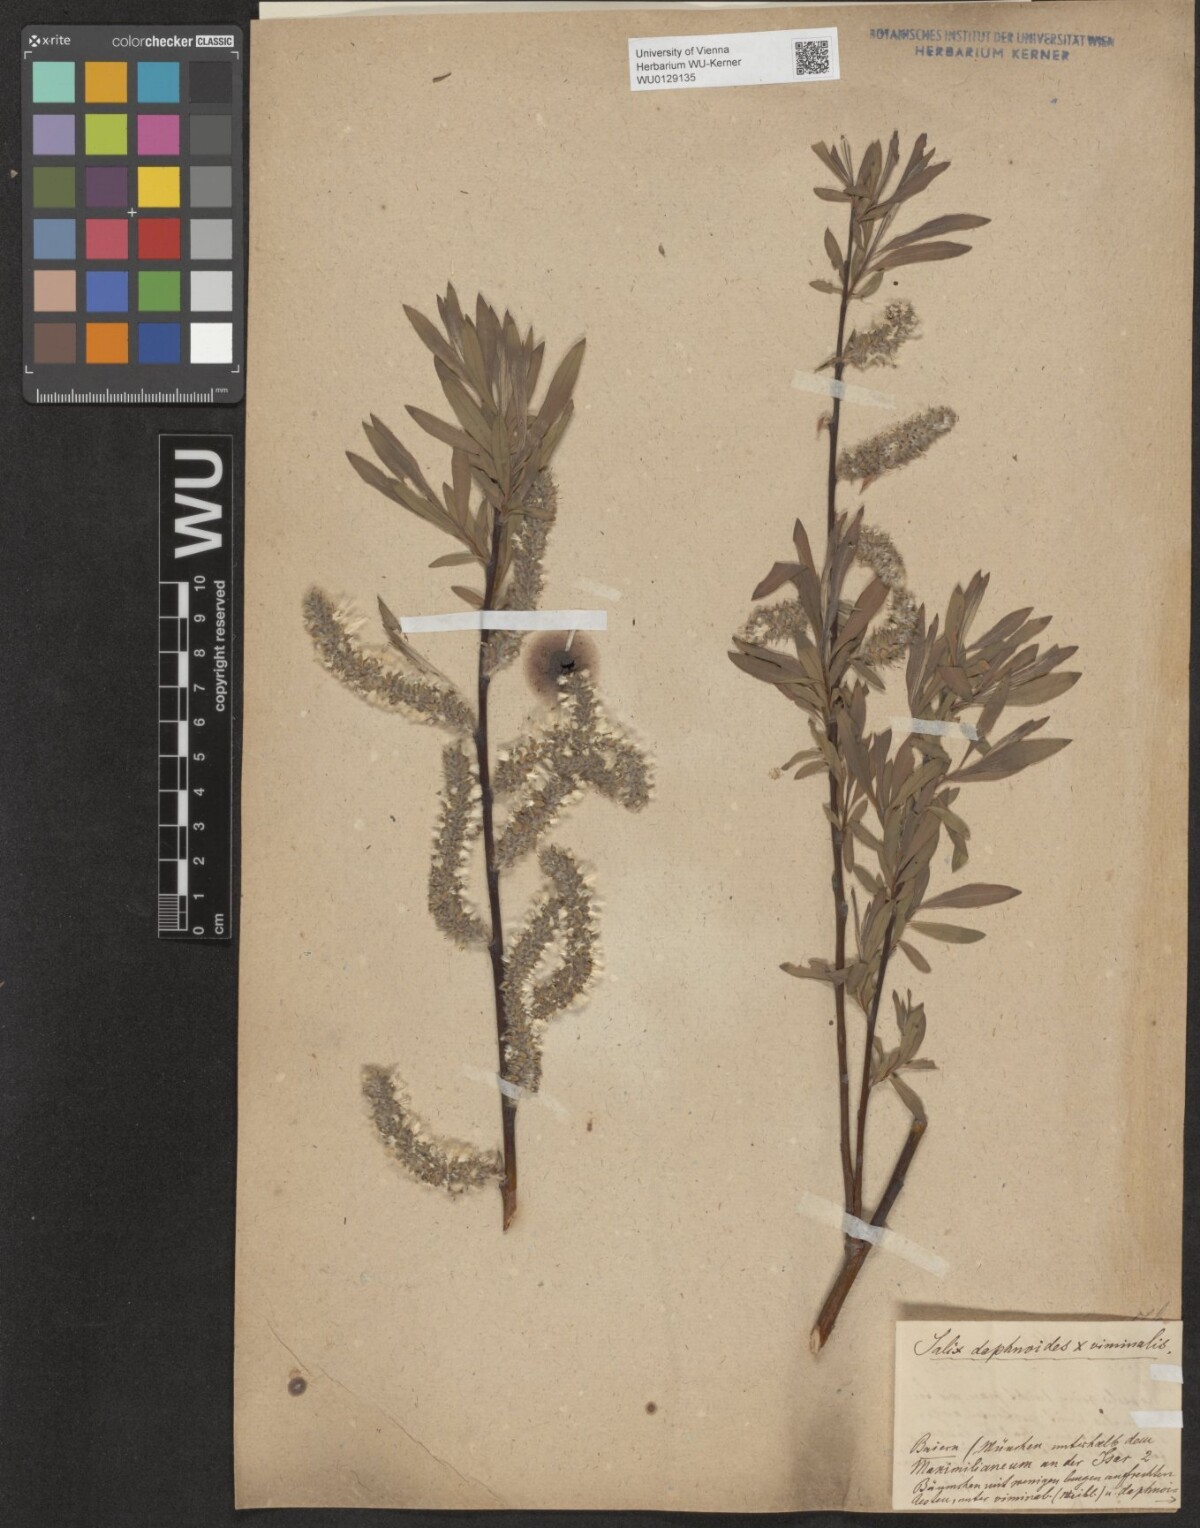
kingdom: Plantae
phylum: Tracheophyta
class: Magnoliopsida
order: Malpighiales
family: Salicaceae
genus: Salix
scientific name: Salix digenea
